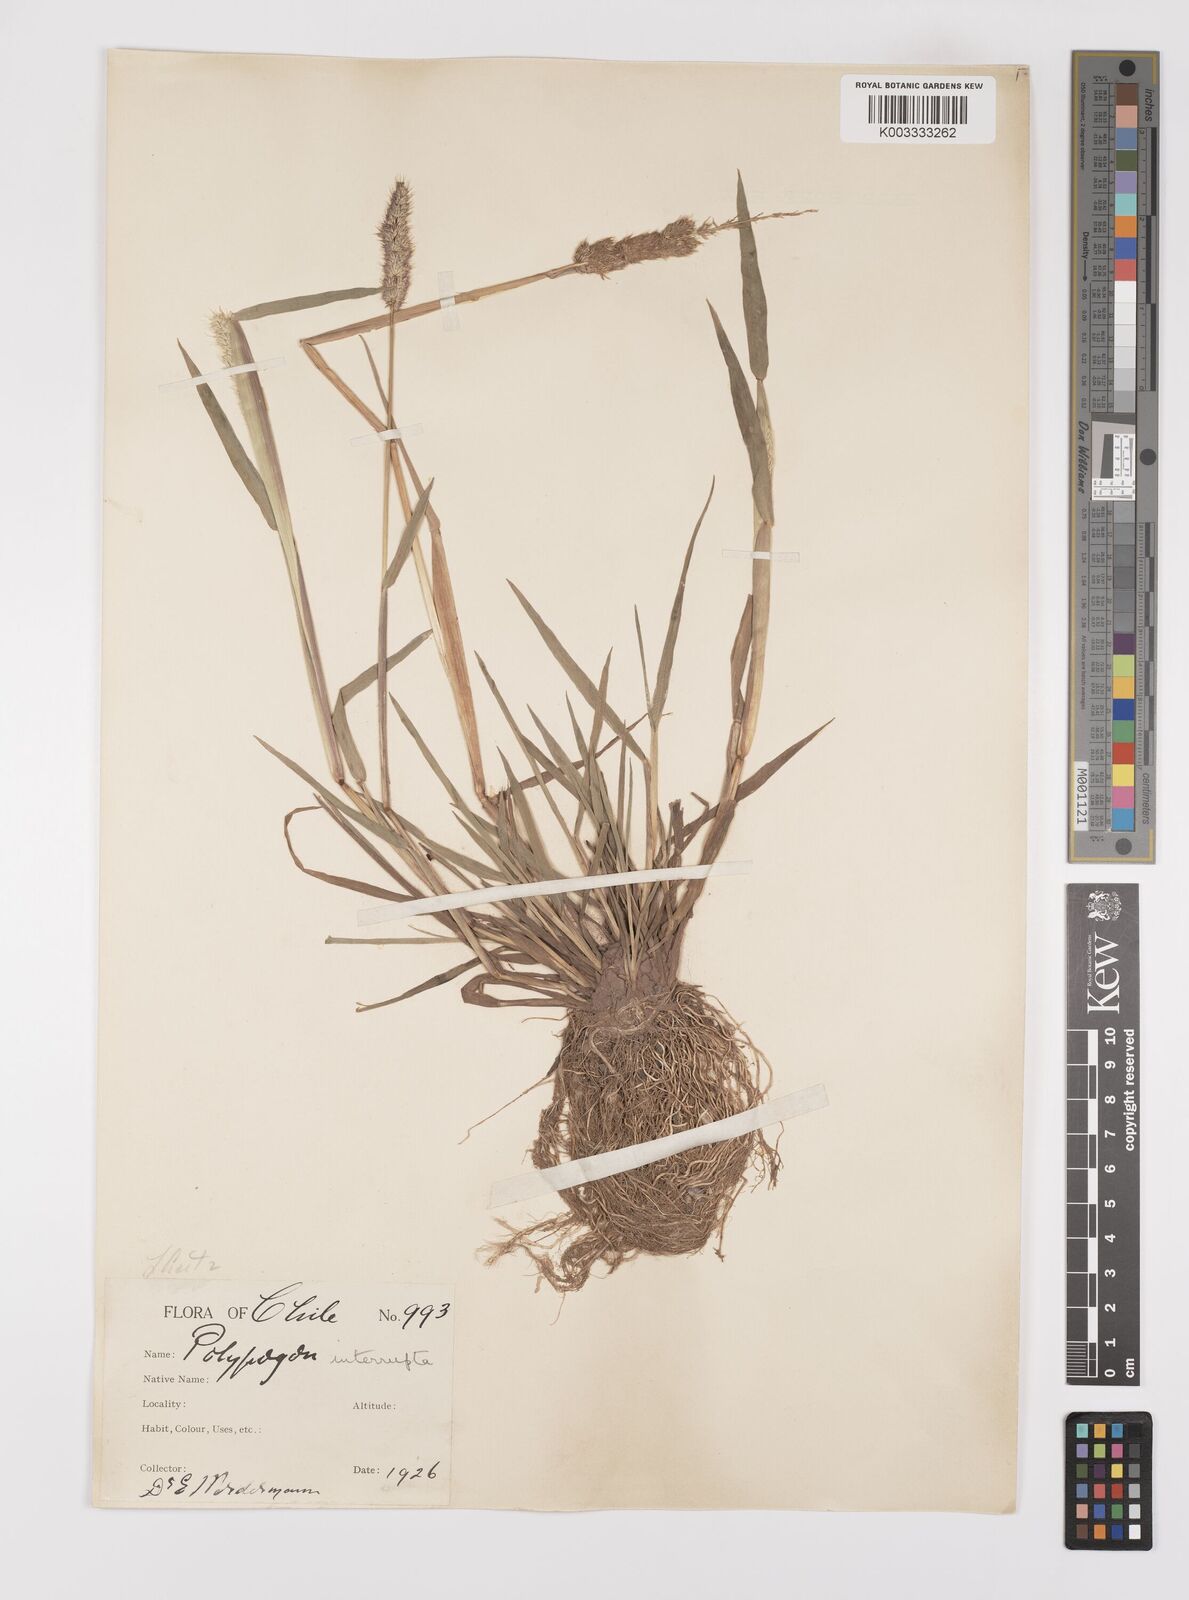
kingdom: Plantae
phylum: Tracheophyta
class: Liliopsida
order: Poales
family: Poaceae
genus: Polypogon
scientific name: Polypogon interruptus
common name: Ditch polypogon
